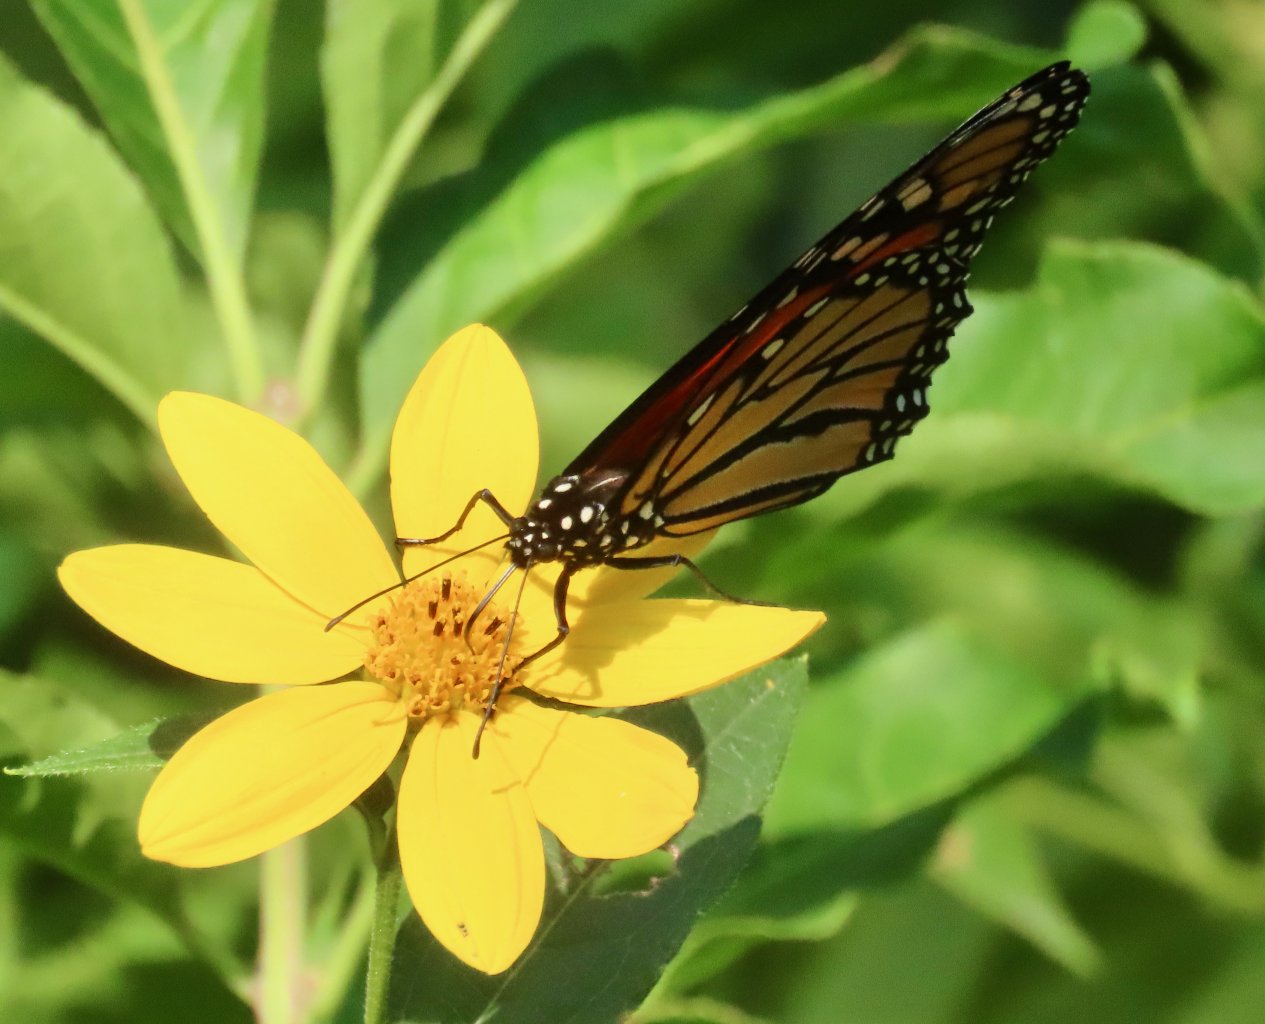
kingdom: Animalia
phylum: Arthropoda
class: Insecta
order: Lepidoptera
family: Nymphalidae
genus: Danaus
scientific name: Danaus plexippus
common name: Monarch
